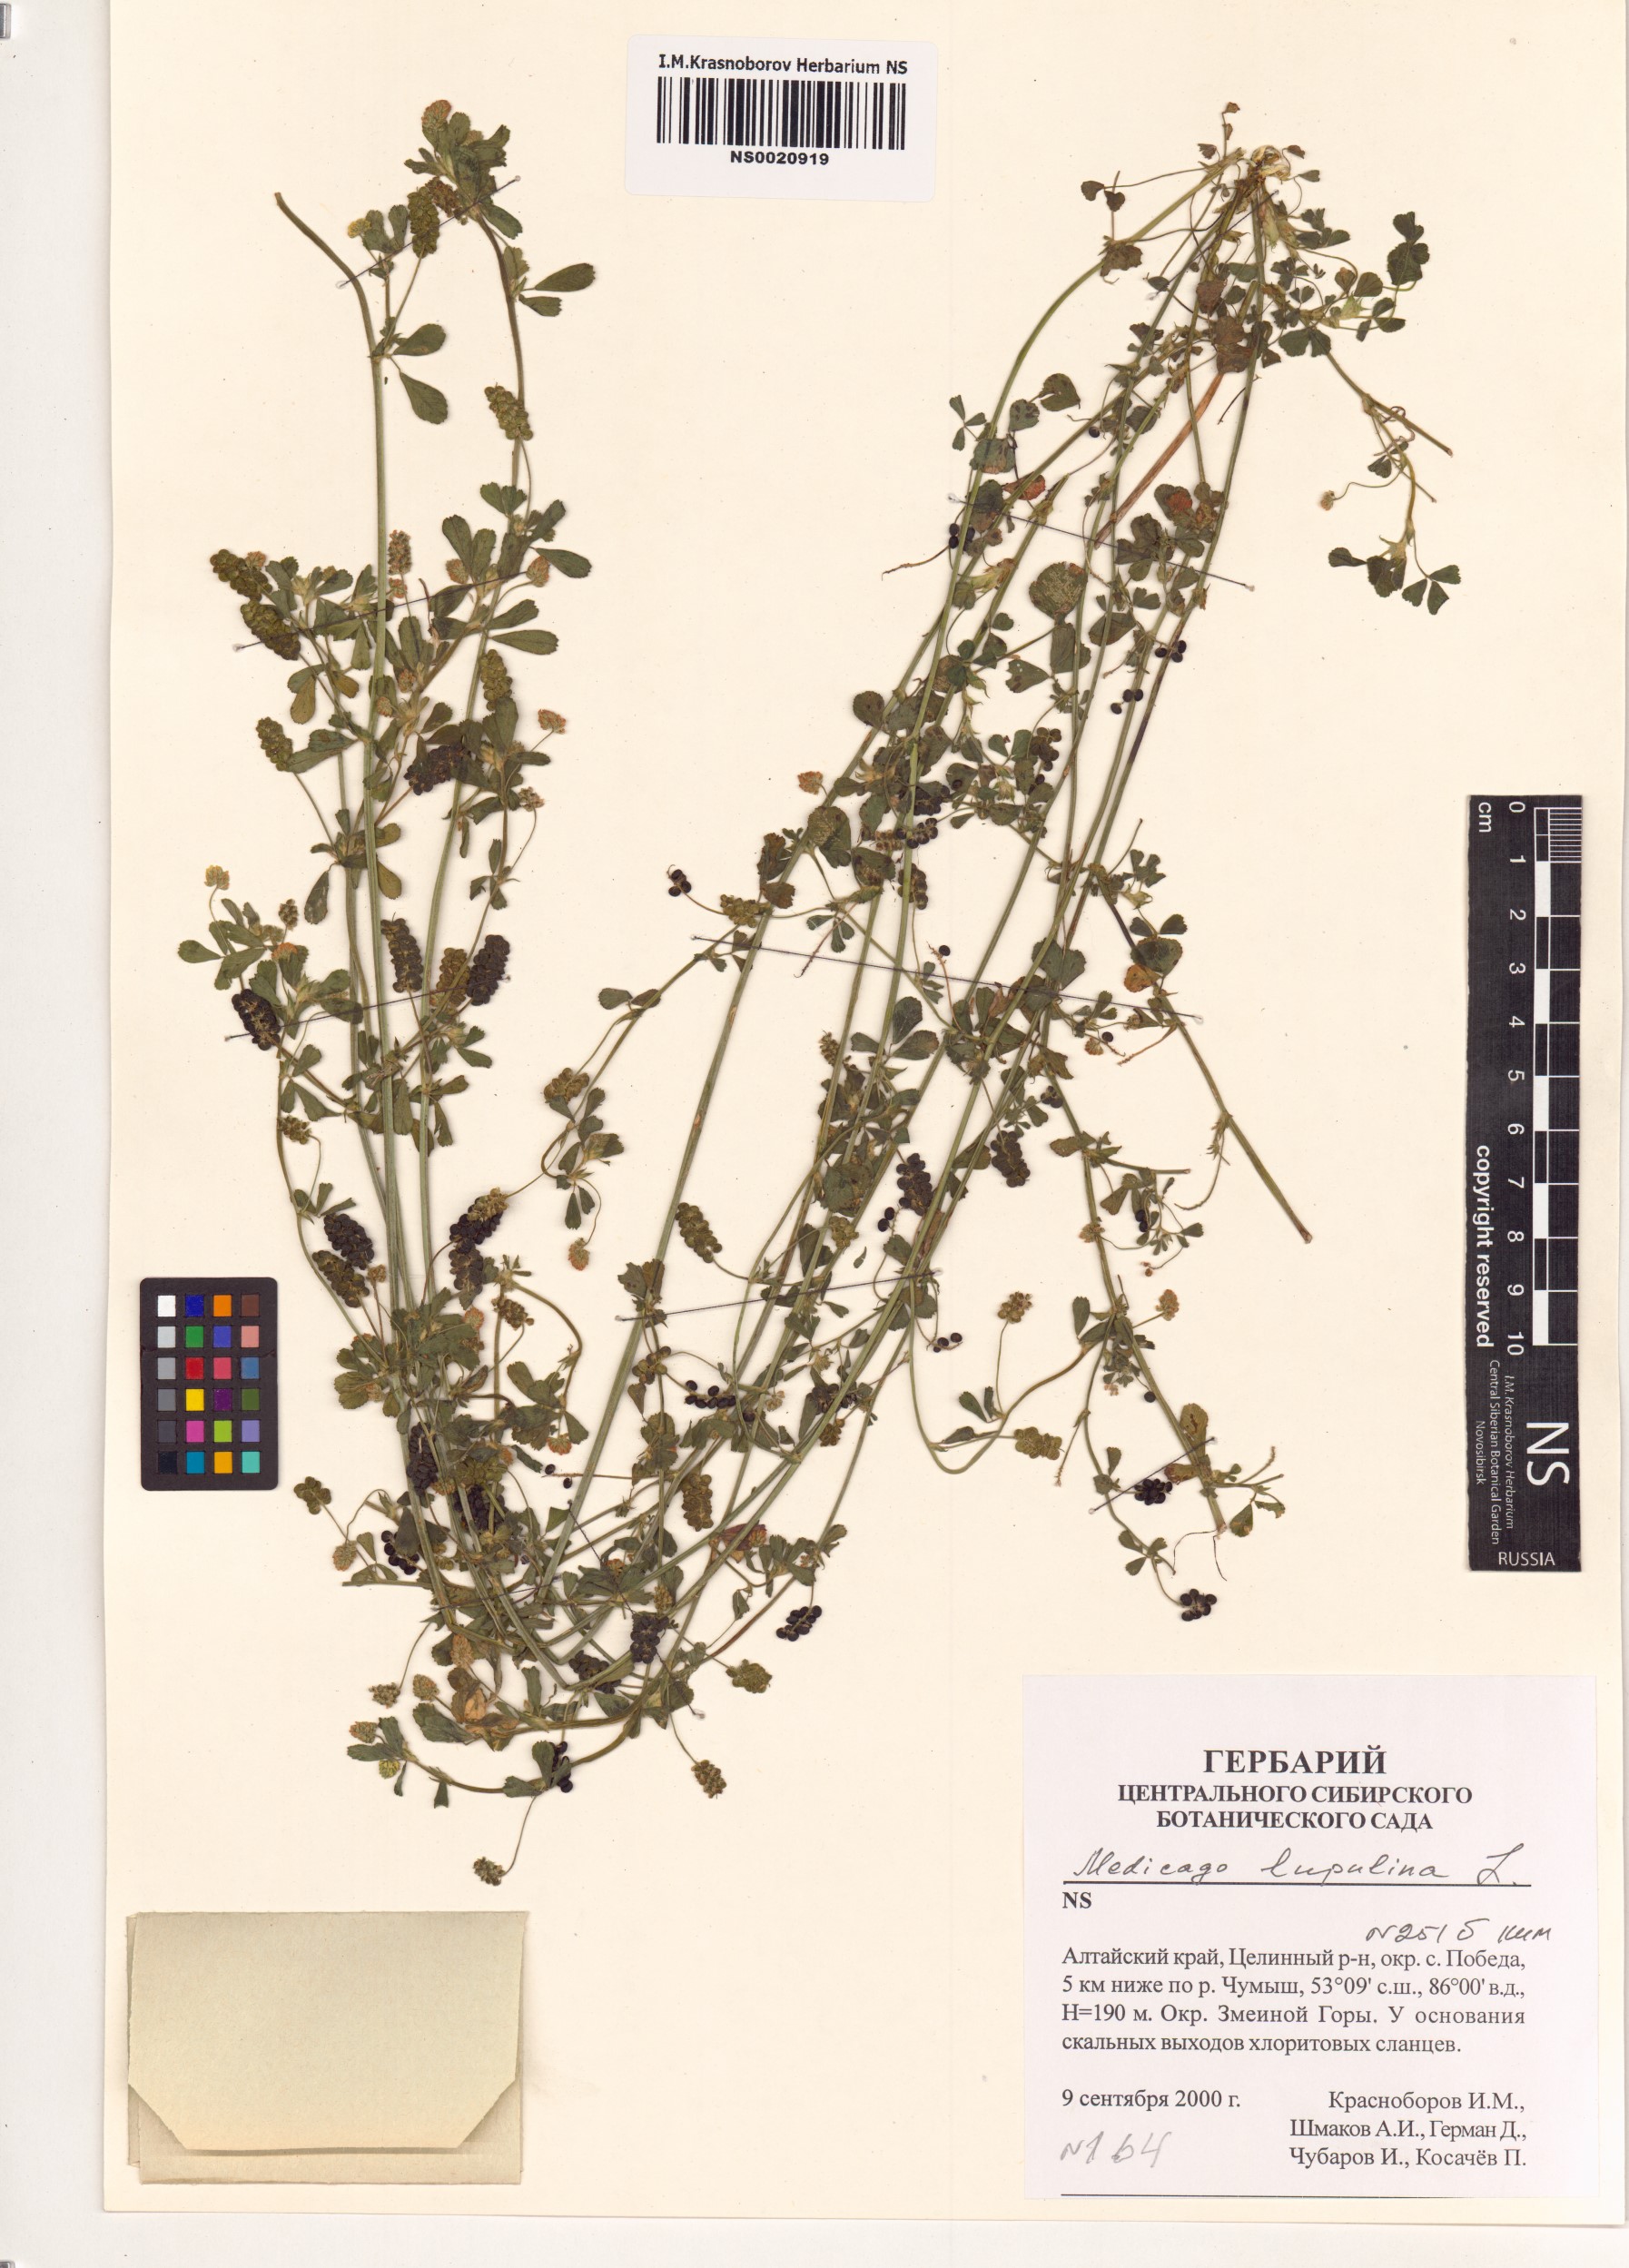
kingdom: Plantae
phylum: Tracheophyta
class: Magnoliopsida
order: Fabales
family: Fabaceae
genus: Medicago
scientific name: Medicago lupulina
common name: Black medick
